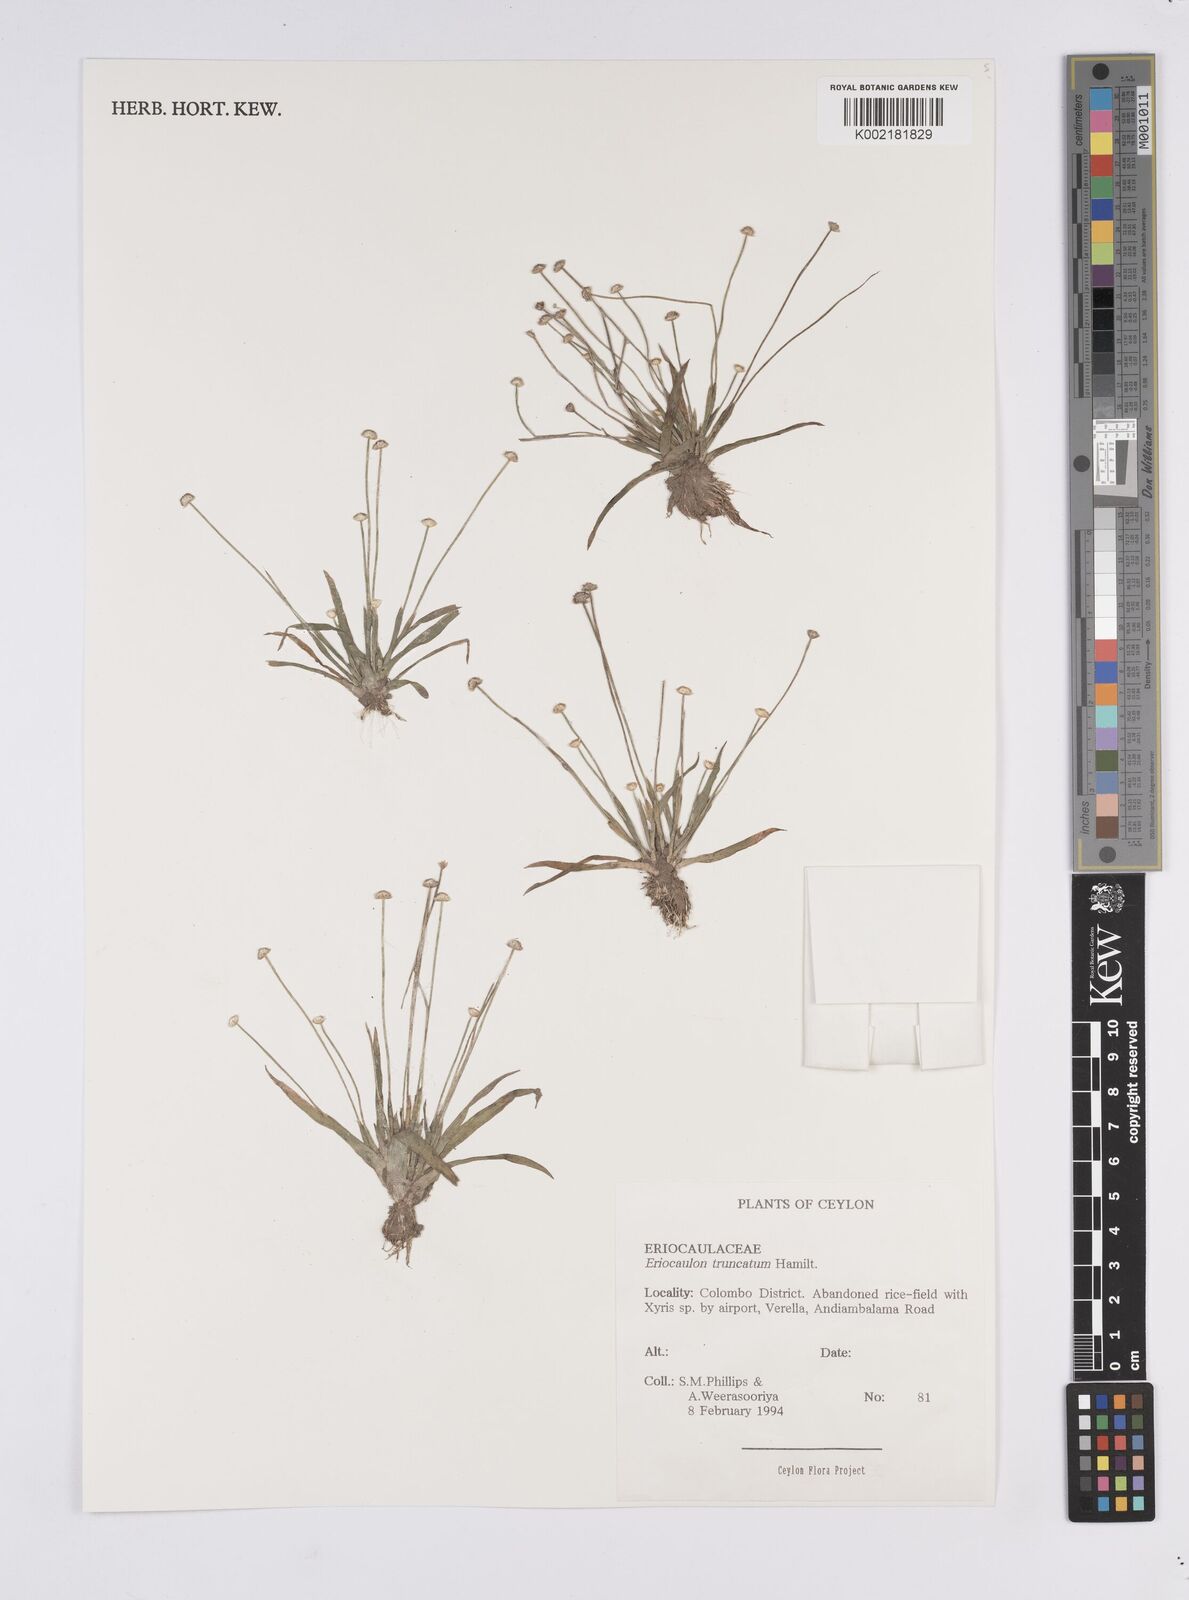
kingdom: Plantae
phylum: Tracheophyta
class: Liliopsida
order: Poales
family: Eriocaulaceae
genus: Eriocaulon
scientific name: Eriocaulon truncatum
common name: Short pipe-wort
